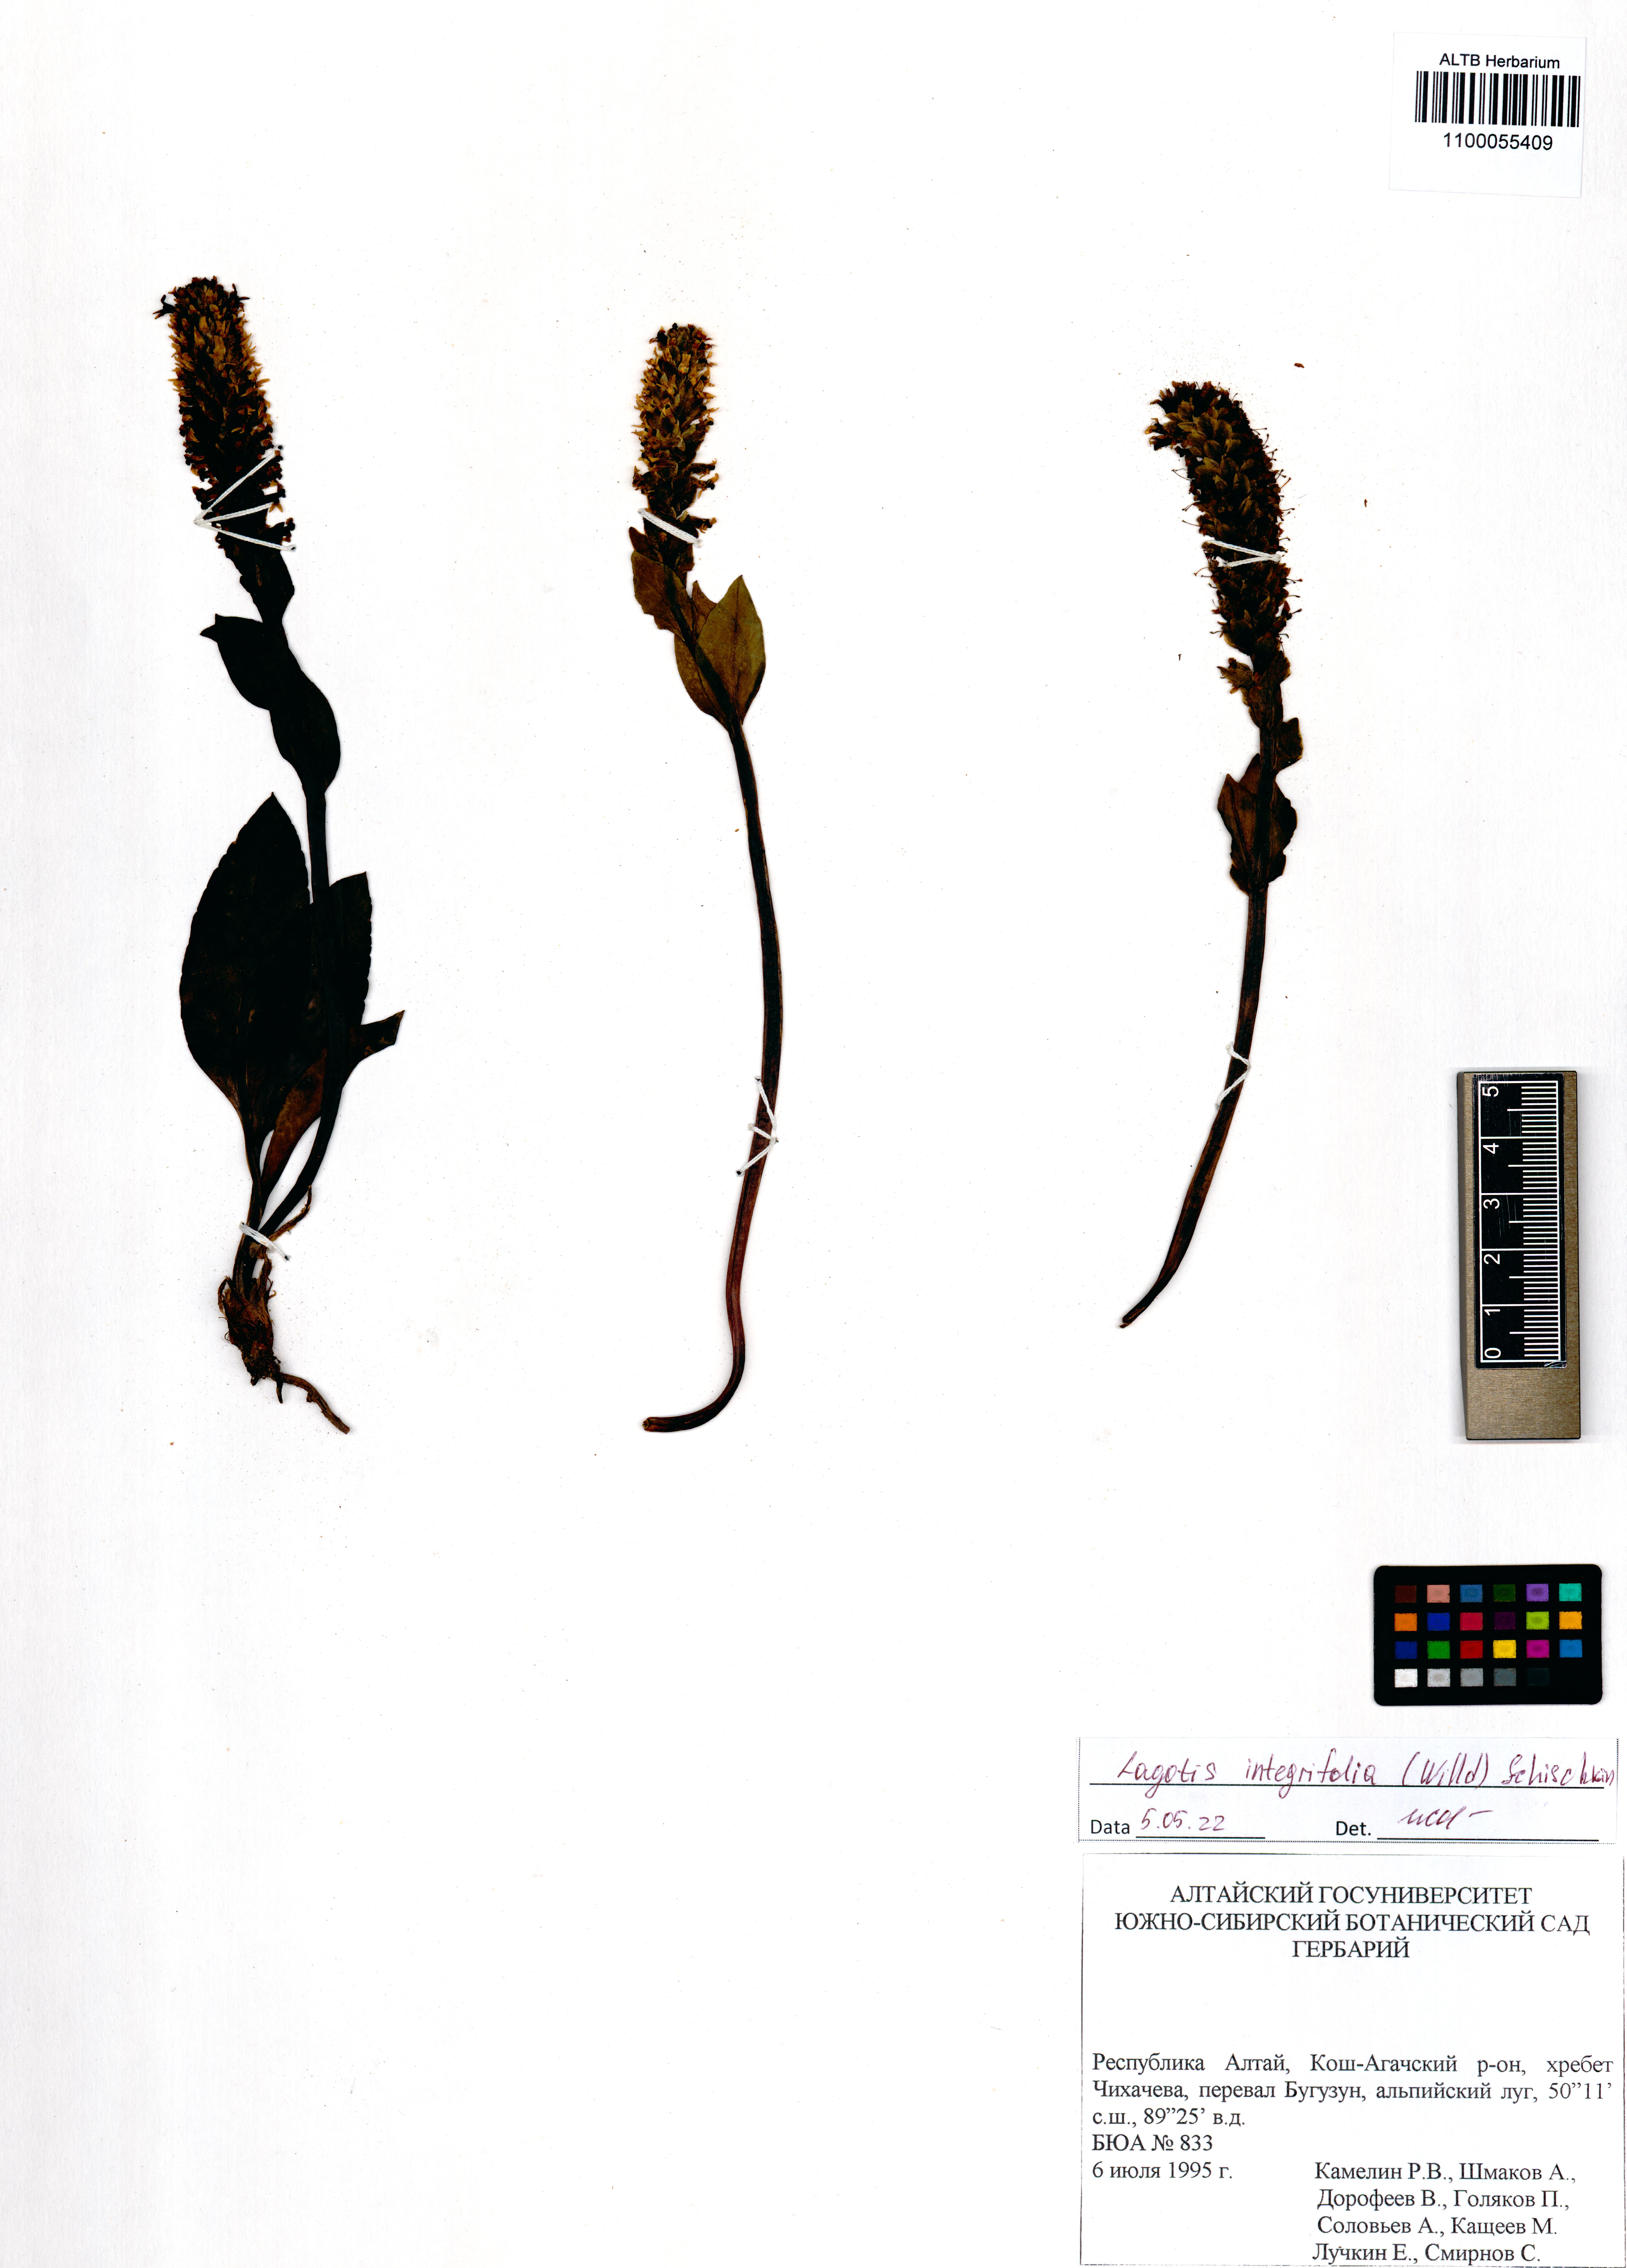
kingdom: Plantae
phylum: Tracheophyta
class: Magnoliopsida
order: Lamiales
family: Plantaginaceae
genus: Lagotis
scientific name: Lagotis integrifolia
